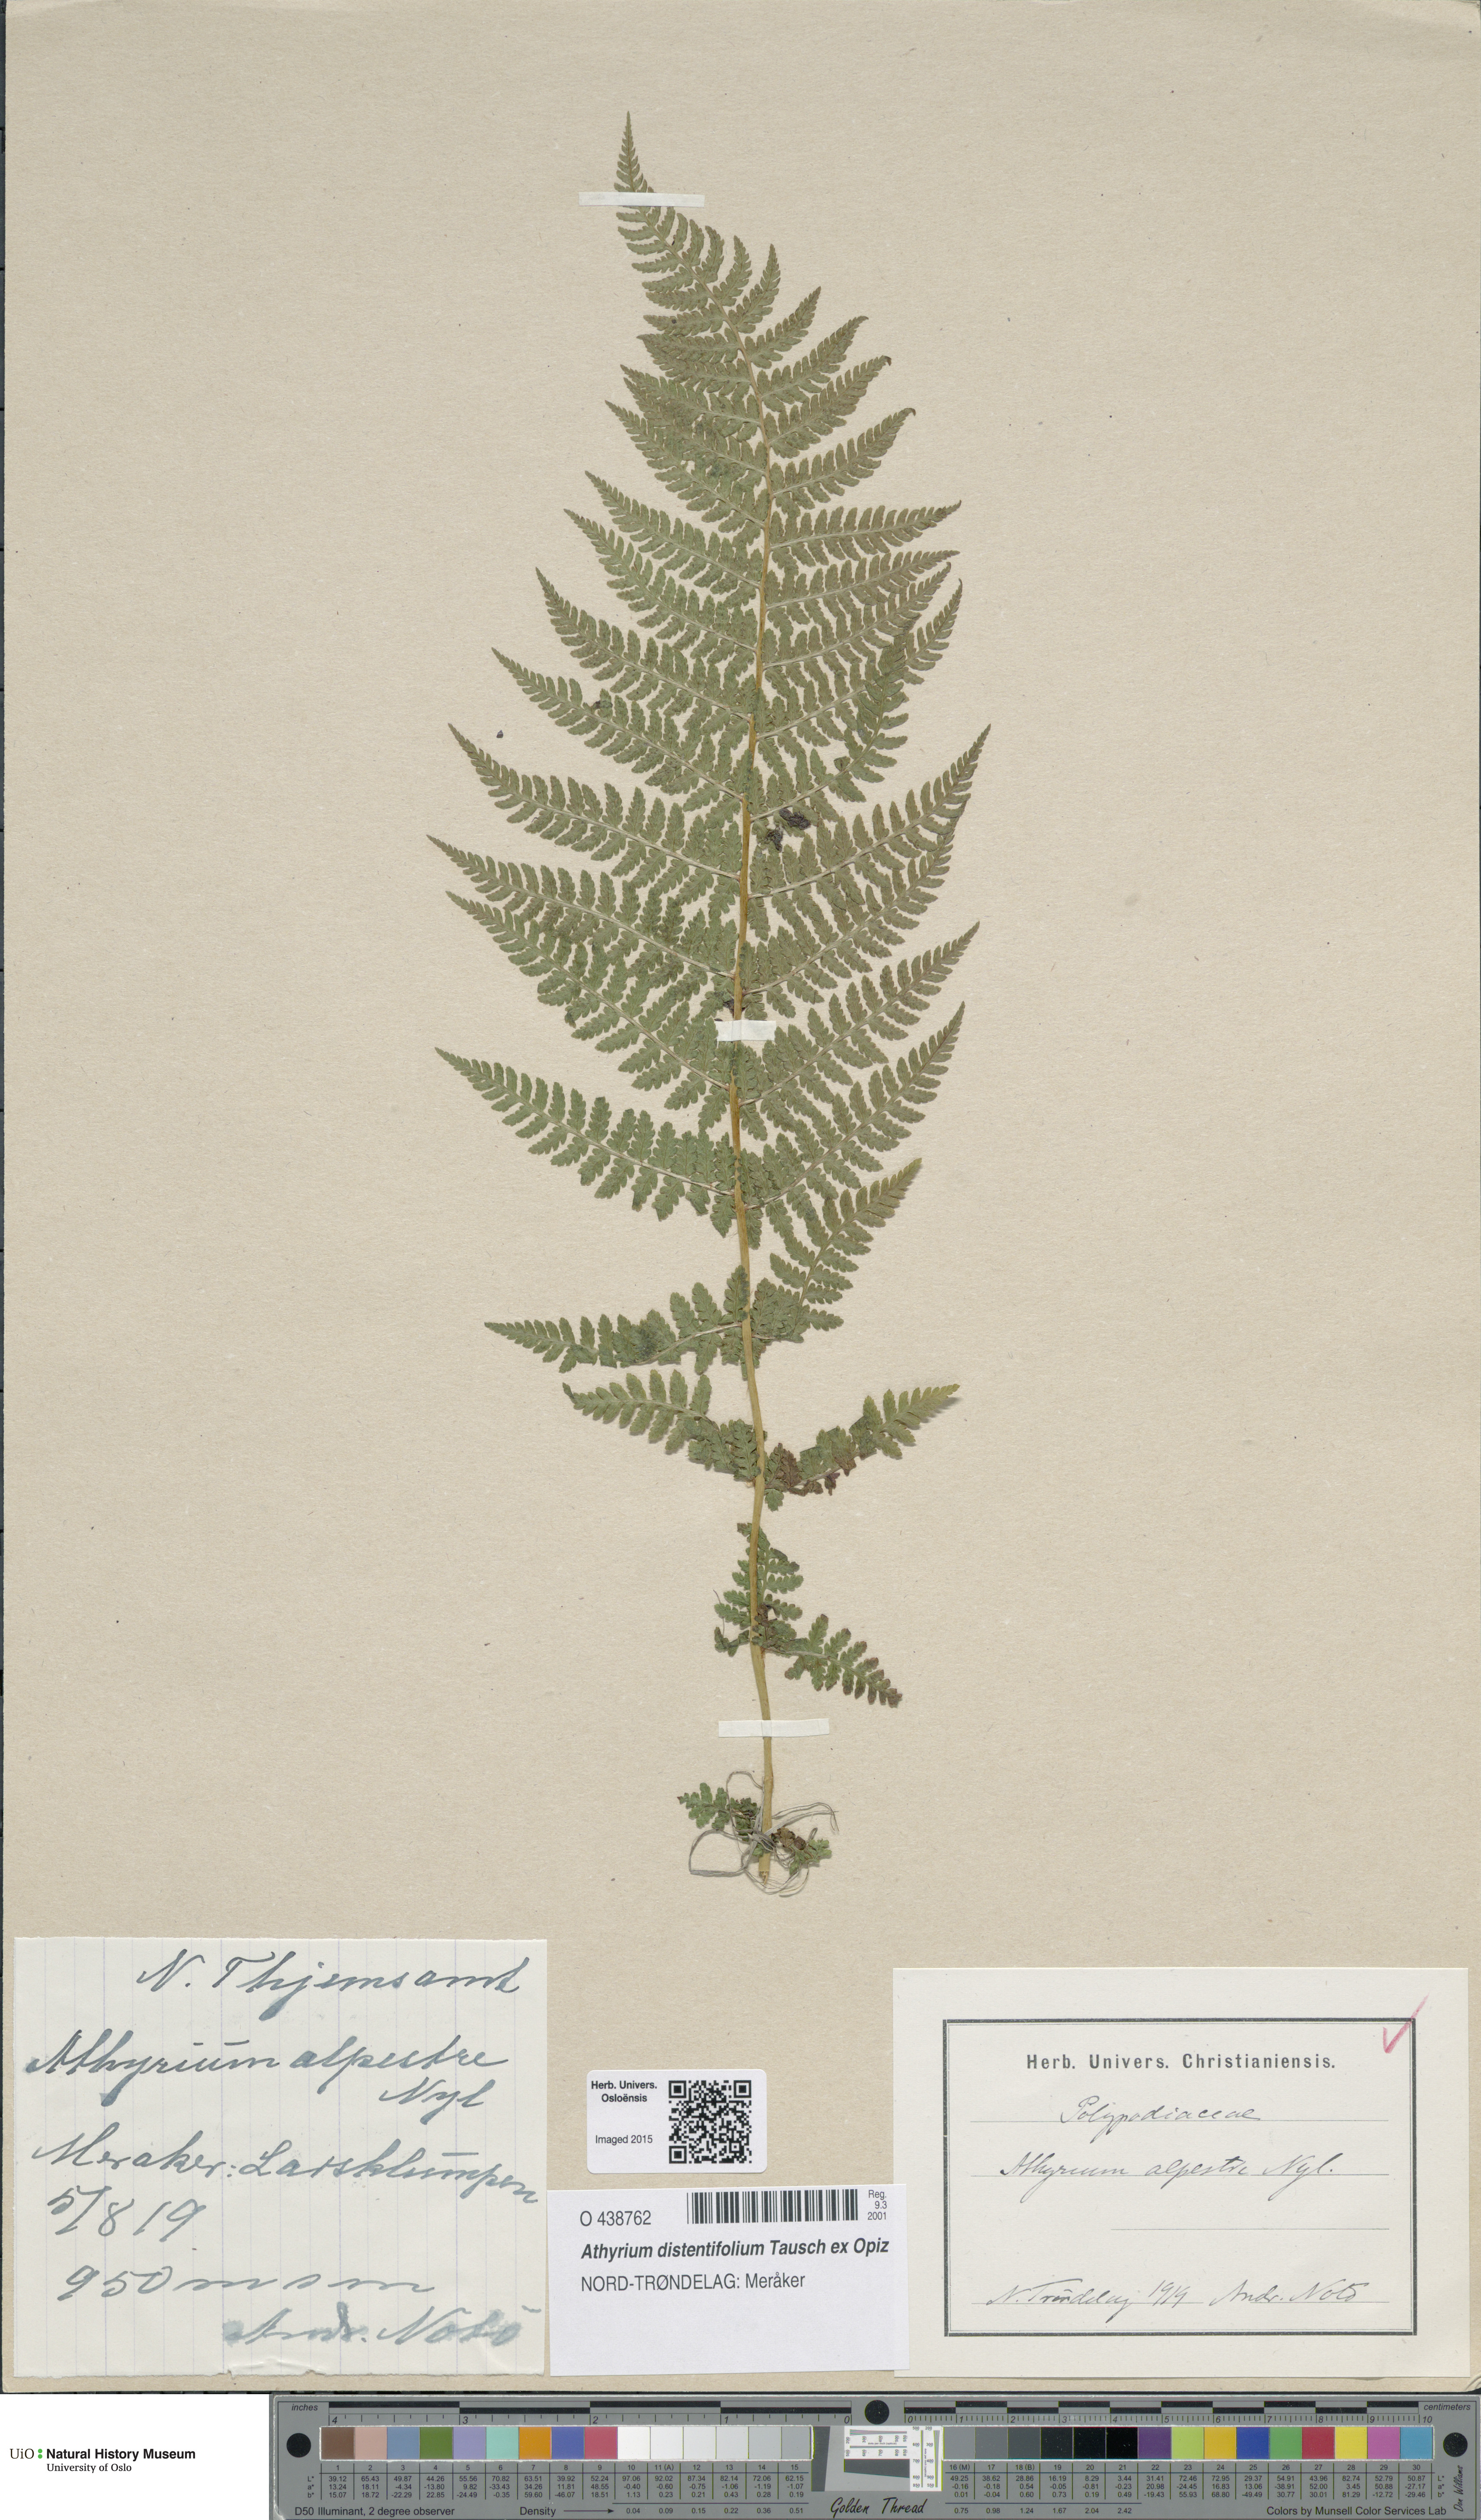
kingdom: Plantae
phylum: Tracheophyta
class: Polypodiopsida
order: Polypodiales
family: Athyriaceae
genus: Pseudathyrium
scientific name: Pseudathyrium alpestre
